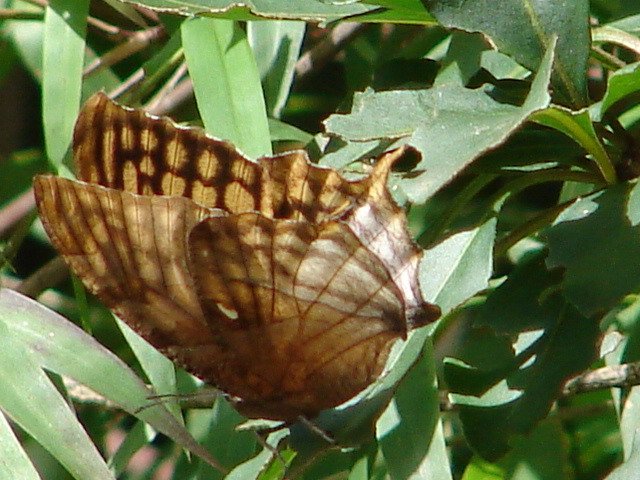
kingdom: Animalia
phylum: Arthropoda
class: Insecta
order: Lepidoptera
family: Nymphalidae
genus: Consul
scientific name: Consul excellens
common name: Black-veined Leafwing
